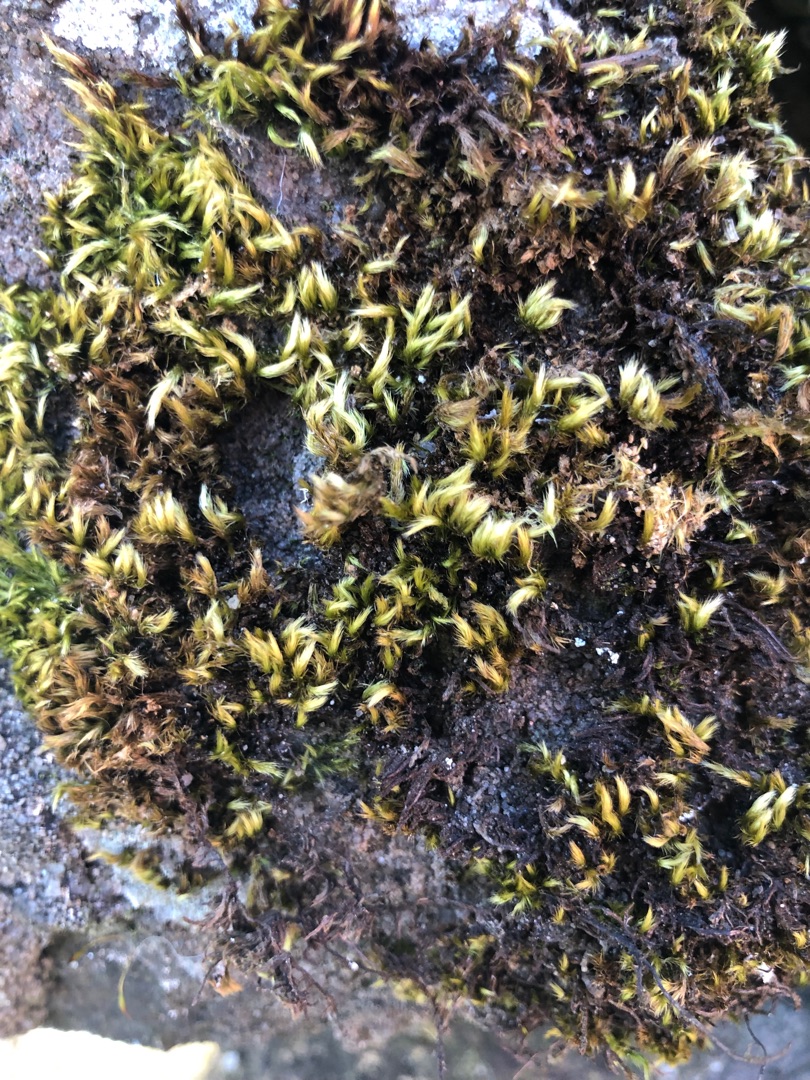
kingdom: Plantae
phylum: Bryophyta
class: Bryopsida
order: Hypnales
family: Brachytheciaceae
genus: Homalothecium
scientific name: Homalothecium sericeum
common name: Krybende silkemos
